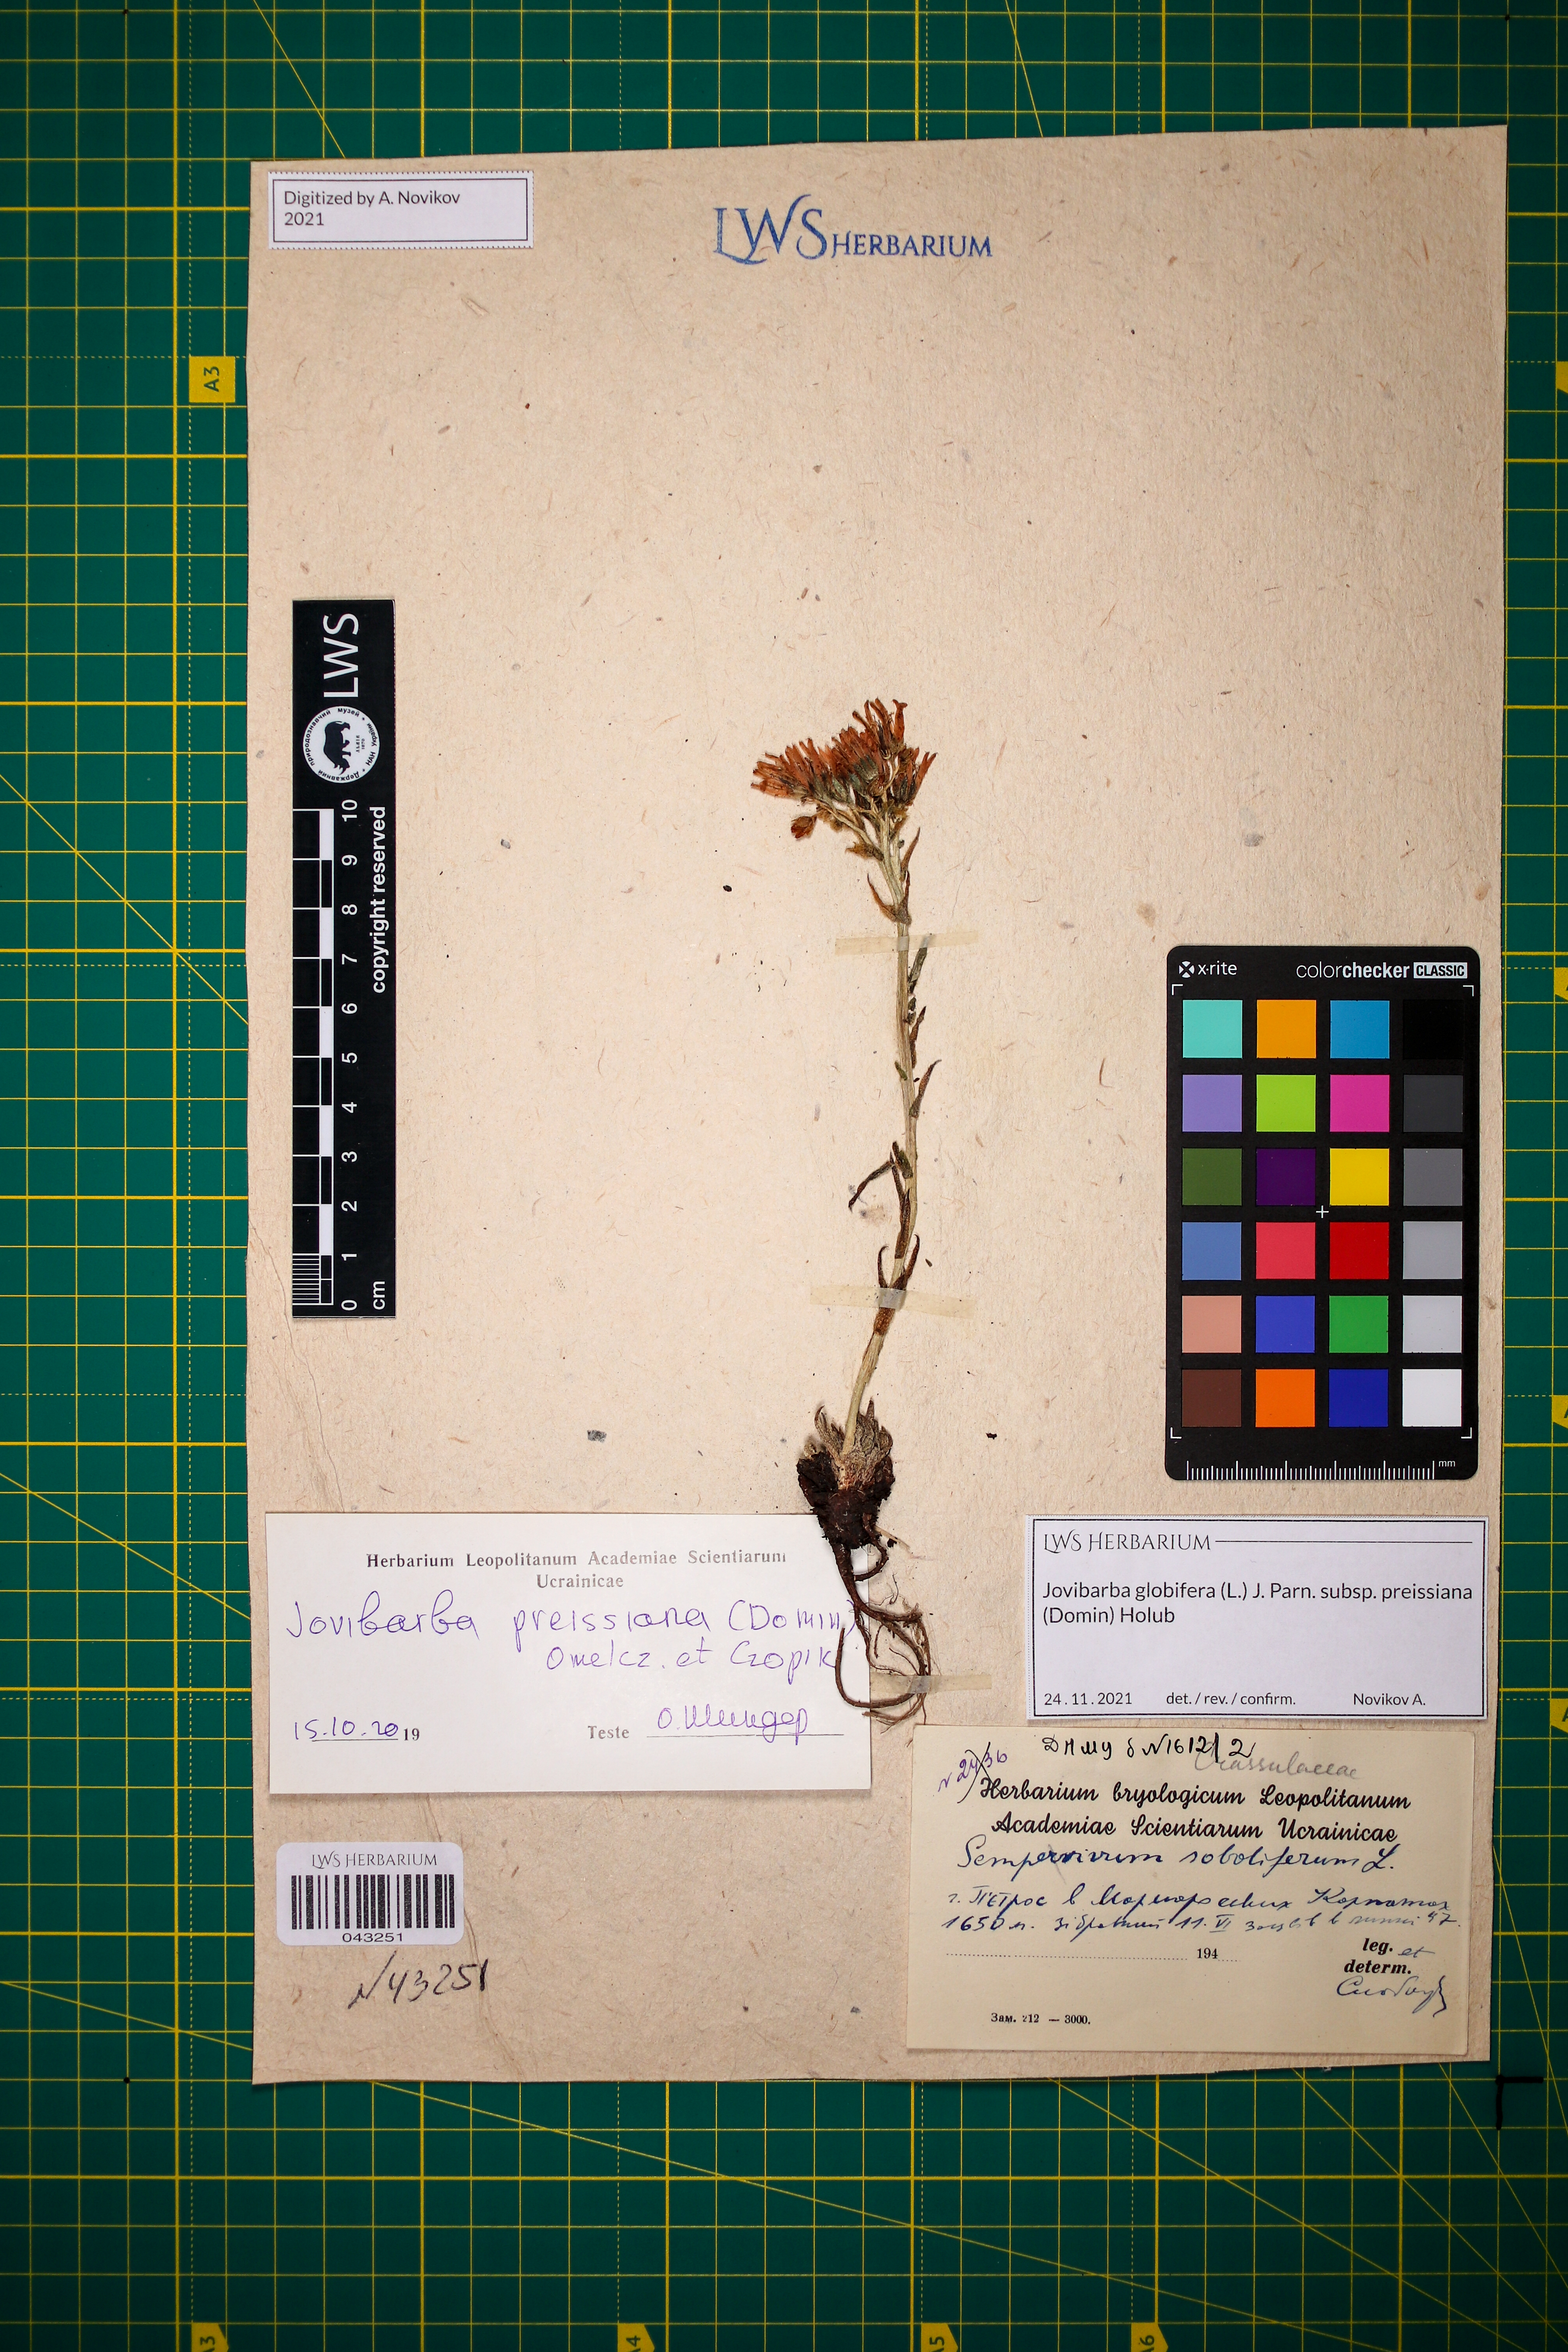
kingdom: Plantae
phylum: Tracheophyta
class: Magnoliopsida
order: Saxifragales
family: Crassulaceae
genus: Sempervivum
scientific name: Sempervivum globiferum
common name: Rolling hen-and-chicks
